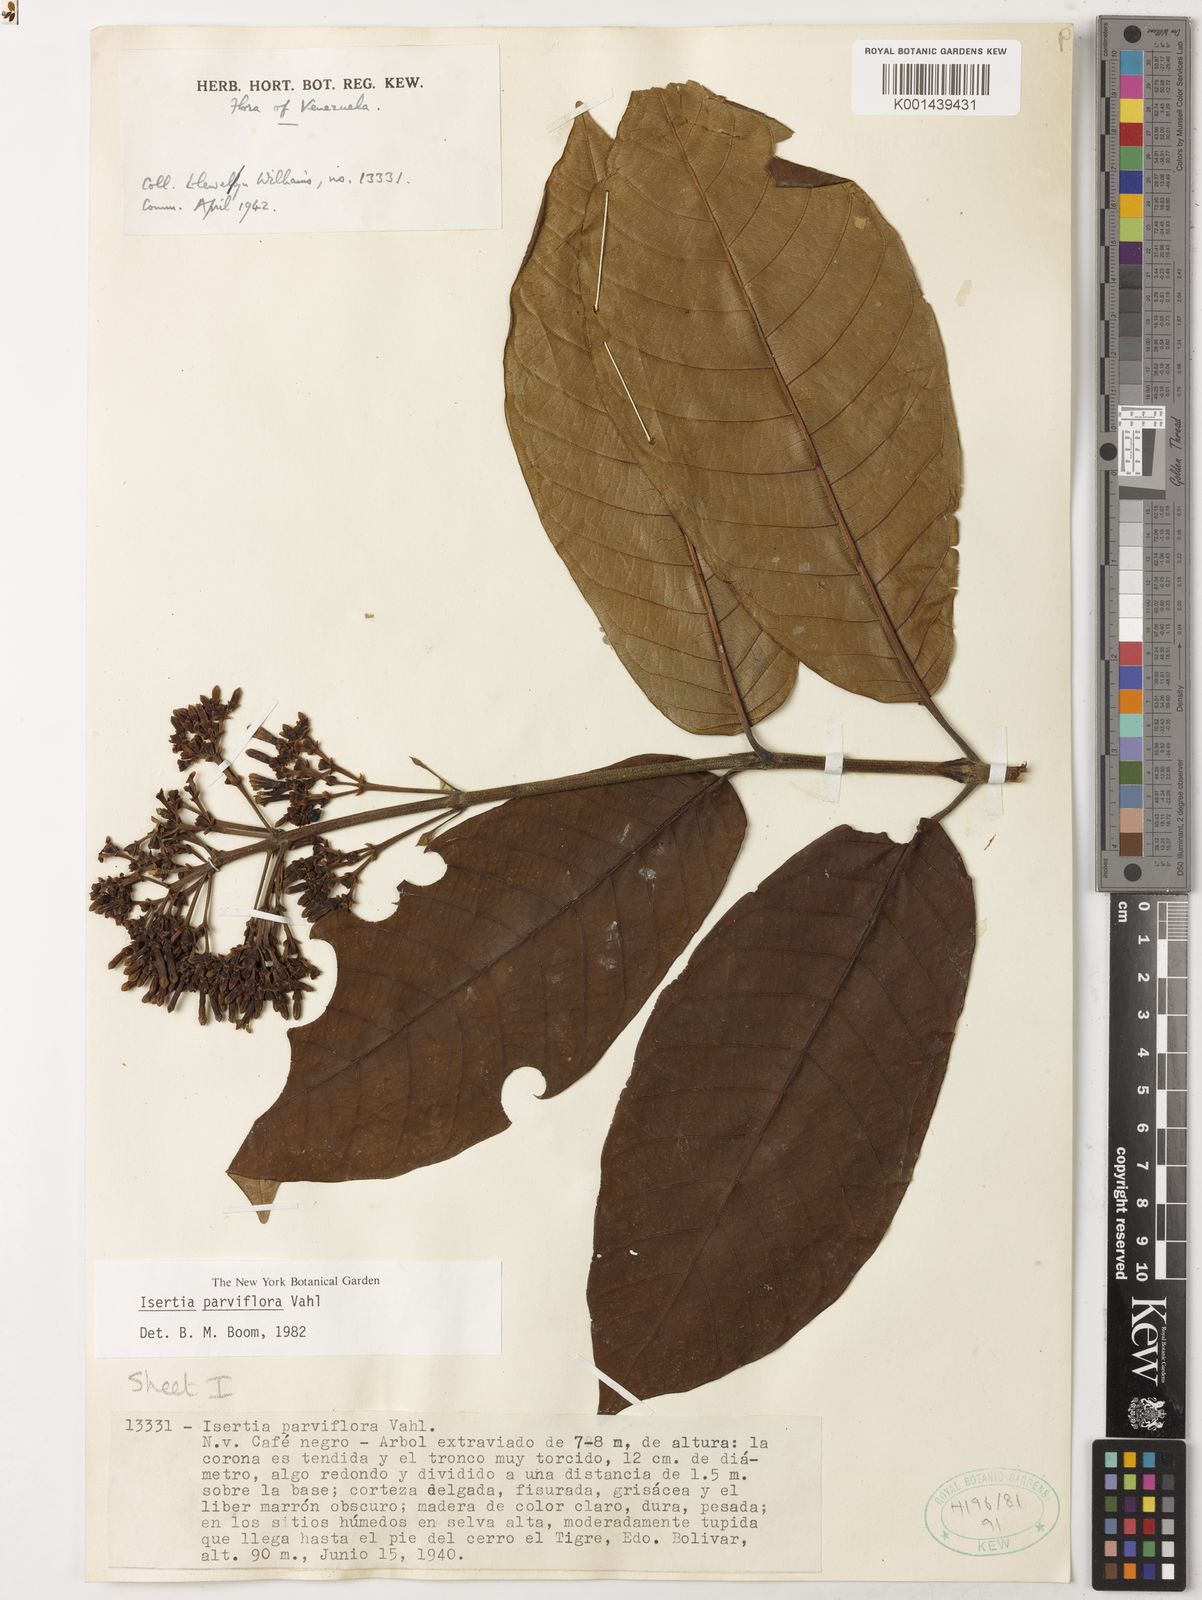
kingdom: Plantae
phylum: Tracheophyta
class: Magnoliopsida
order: Gentianales
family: Rubiaceae
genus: Isertia
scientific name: Isertia parviflora
